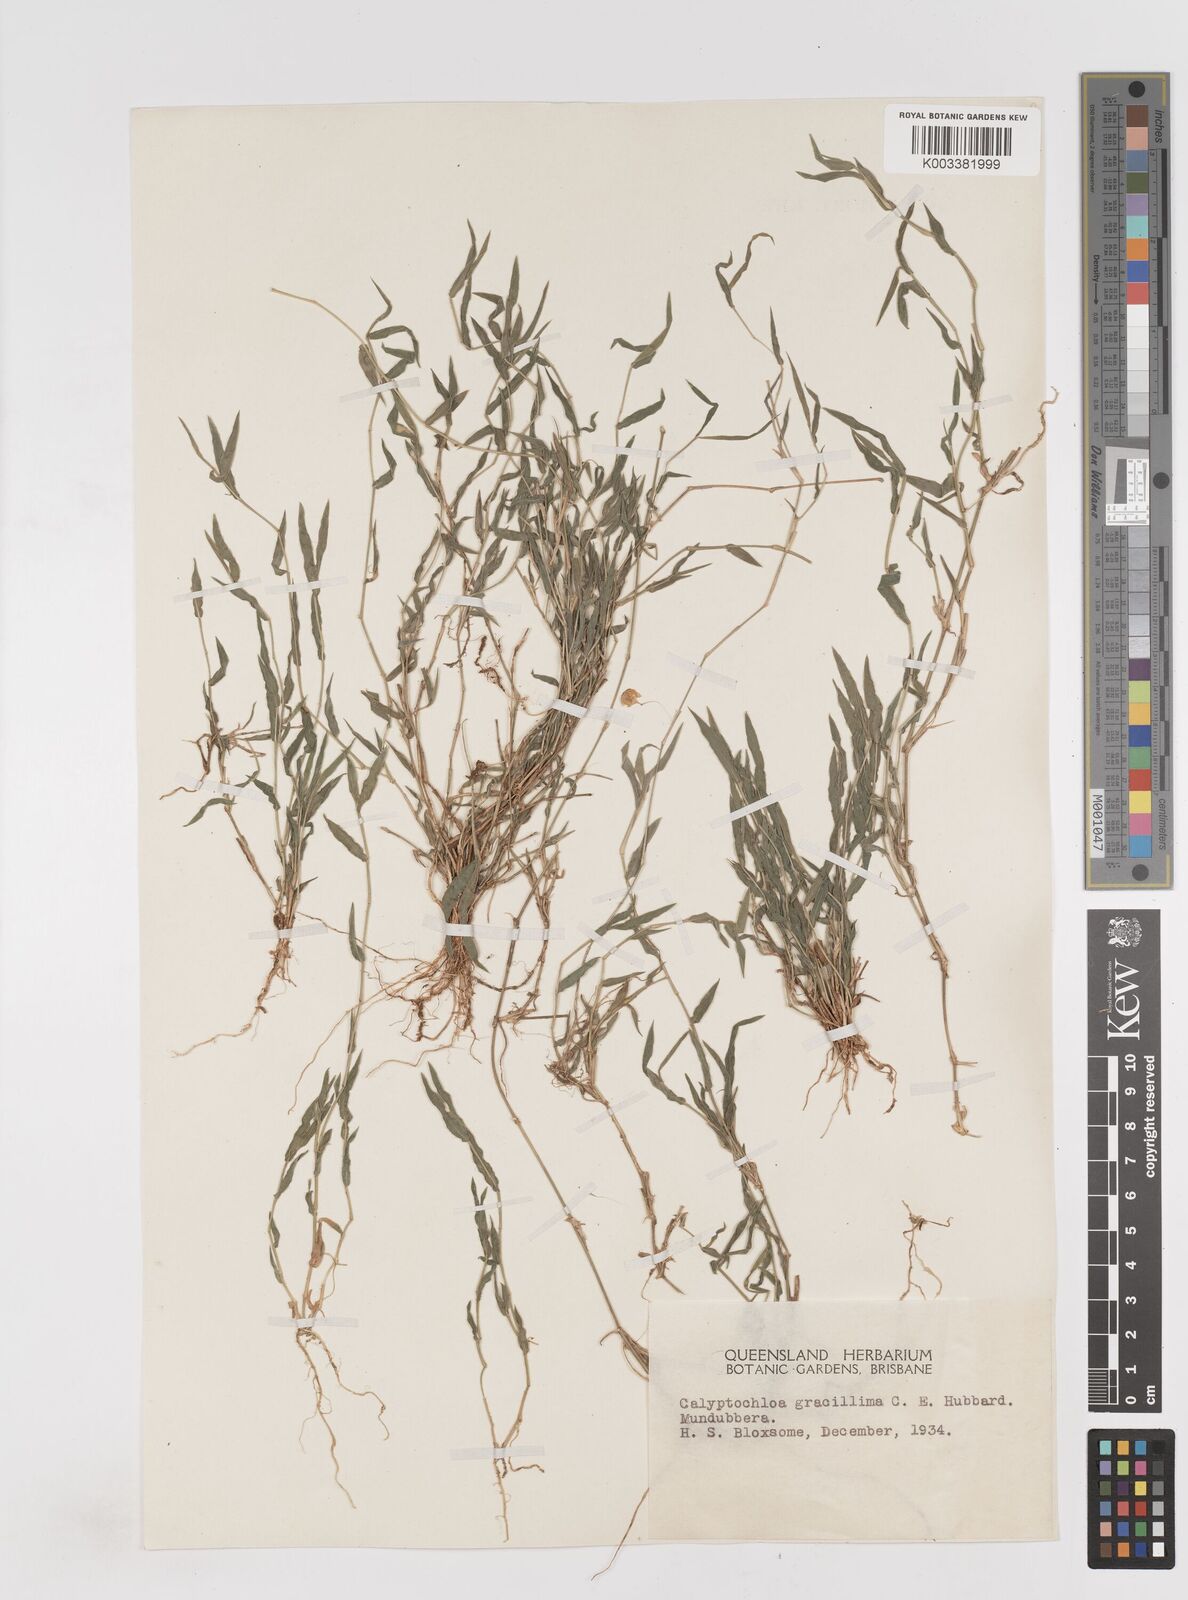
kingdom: Plantae
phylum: Tracheophyta
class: Liliopsida
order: Poales
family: Poaceae
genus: Calyptochloa
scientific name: Calyptochloa gracillima
